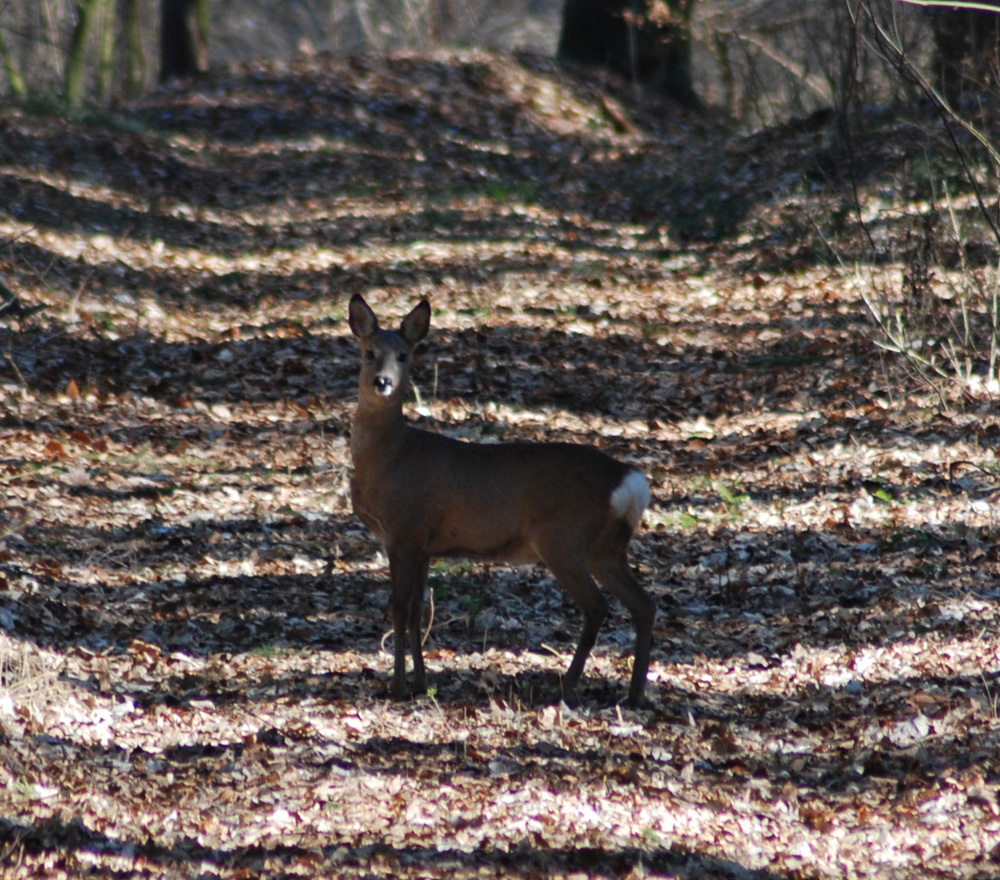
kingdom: Animalia
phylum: Chordata
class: Mammalia
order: Artiodactyla
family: Cervidae
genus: Capreolus
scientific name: Capreolus capreolus
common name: Western roe deer
